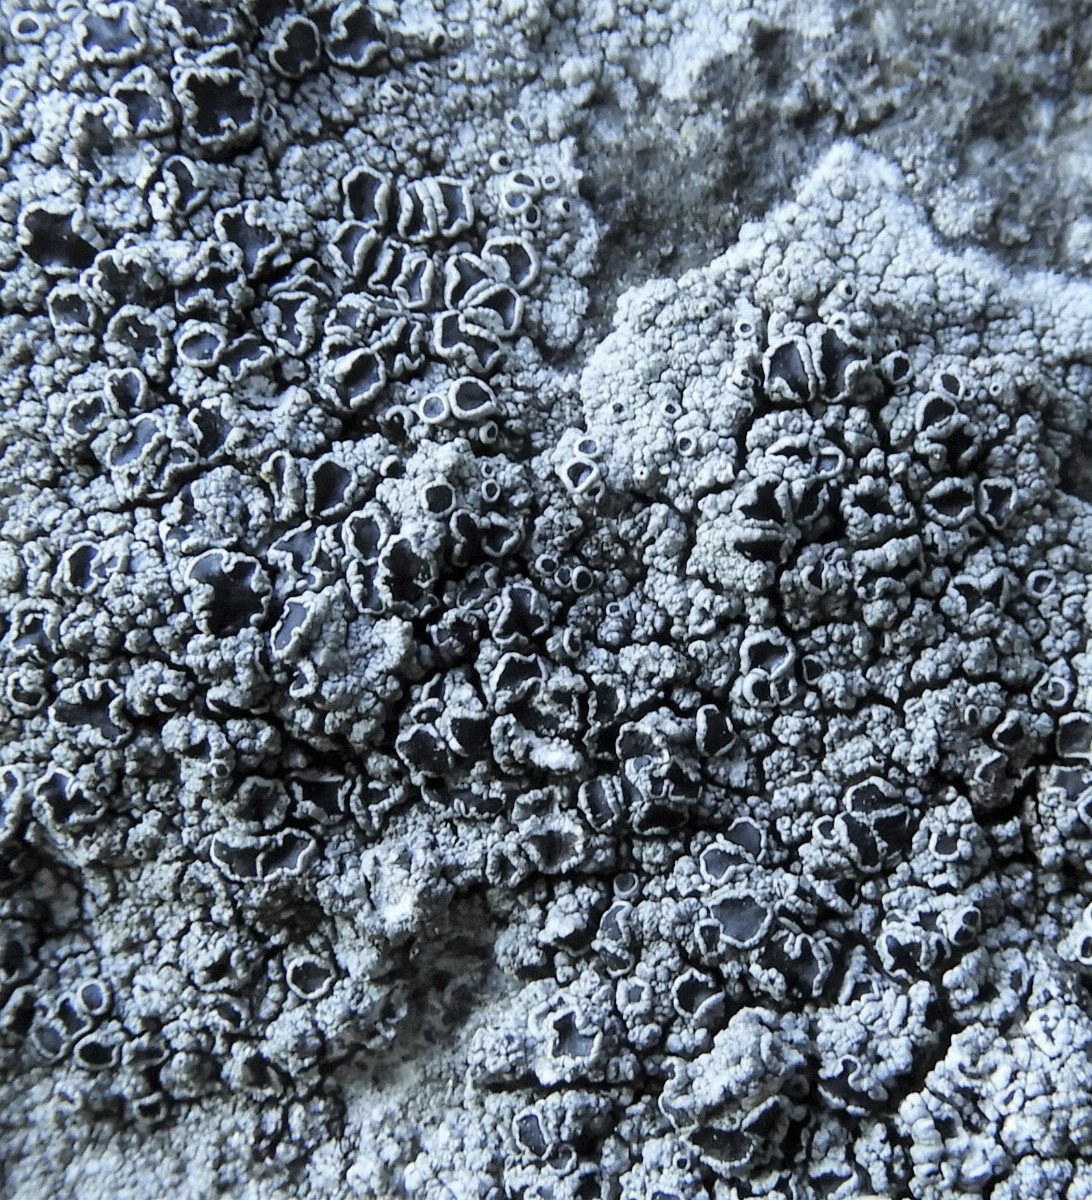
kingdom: Fungi
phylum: Ascomycota
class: Lecanoromycetes
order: Lecanorales
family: Tephromelataceae
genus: Tephromela
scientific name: Tephromela atra
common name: sortfrugtet kantskivelav
